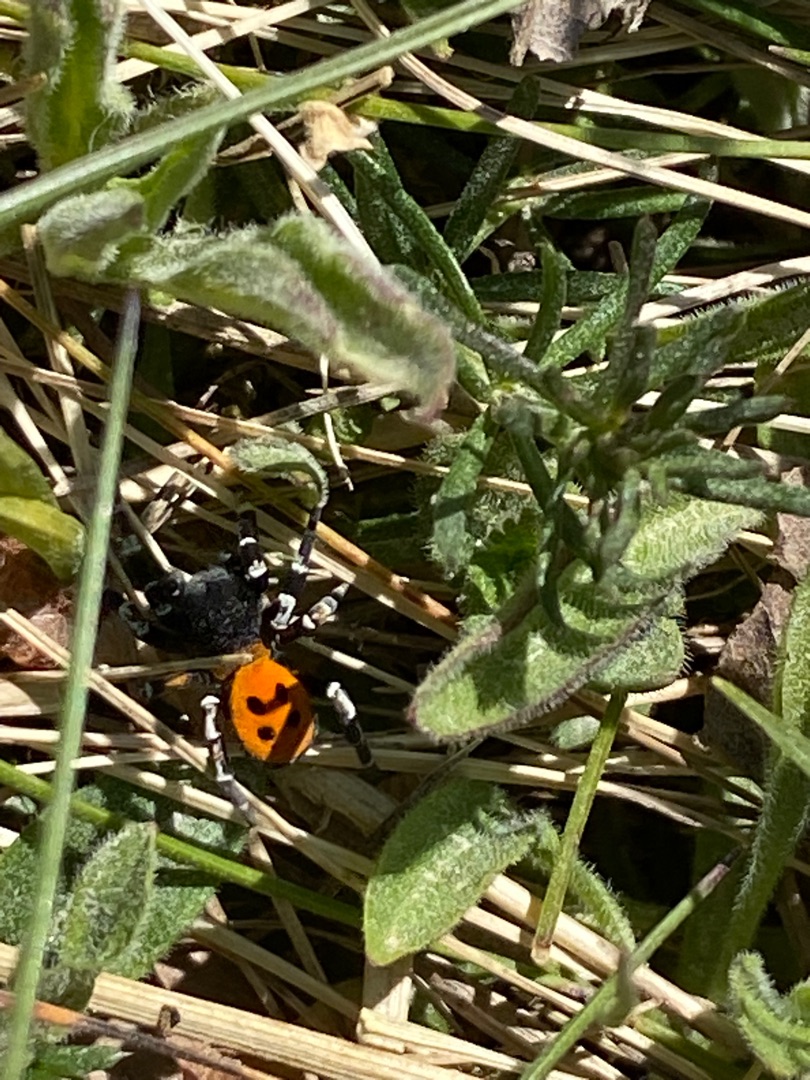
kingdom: Animalia
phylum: Arthropoda
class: Arachnida
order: Araneae
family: Eresidae
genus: Eresus
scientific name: Eresus sandaliatus
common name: Mariehøneedderkop
